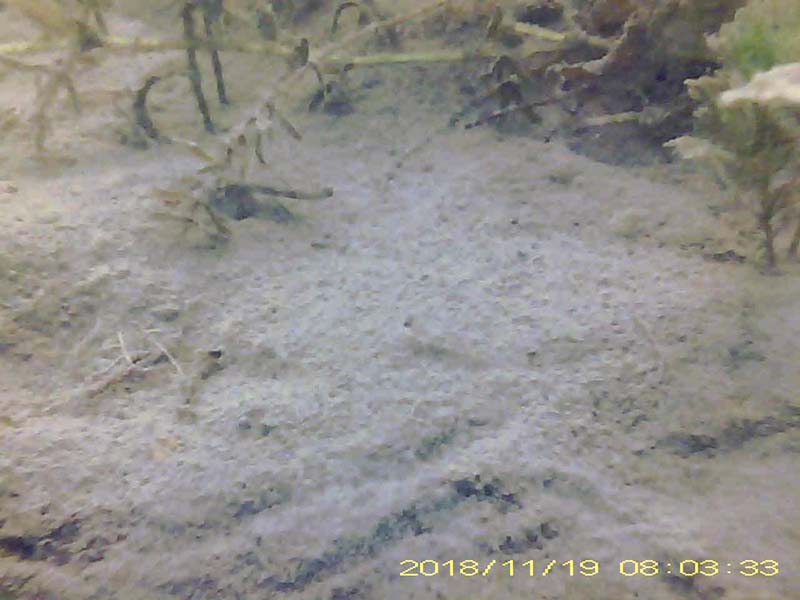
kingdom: Animalia
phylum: Chordata
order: Perciformes
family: Gobiidae
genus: Gymnogobius
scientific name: Gymnogobius
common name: ウキゴリ
